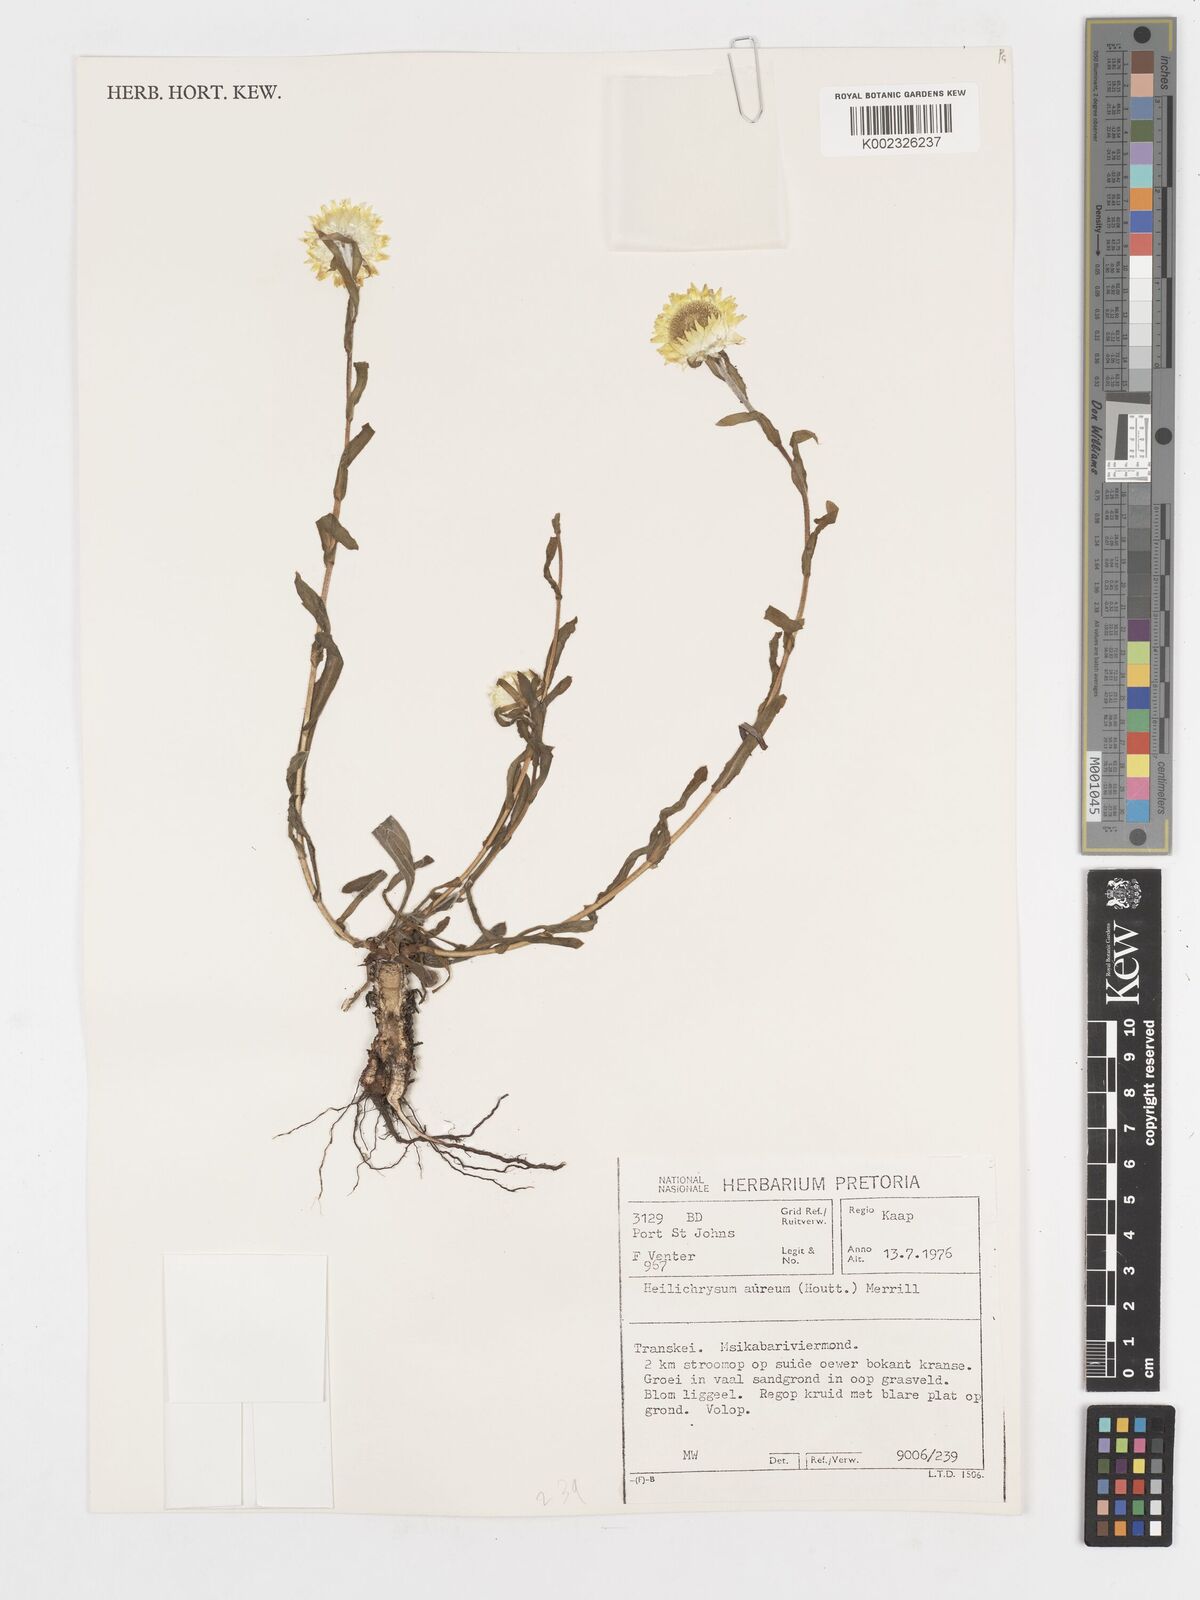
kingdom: Plantae
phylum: Tracheophyta
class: Magnoliopsida
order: Asterales
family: Asteraceae
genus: Helichrysum
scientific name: Helichrysum aureum
